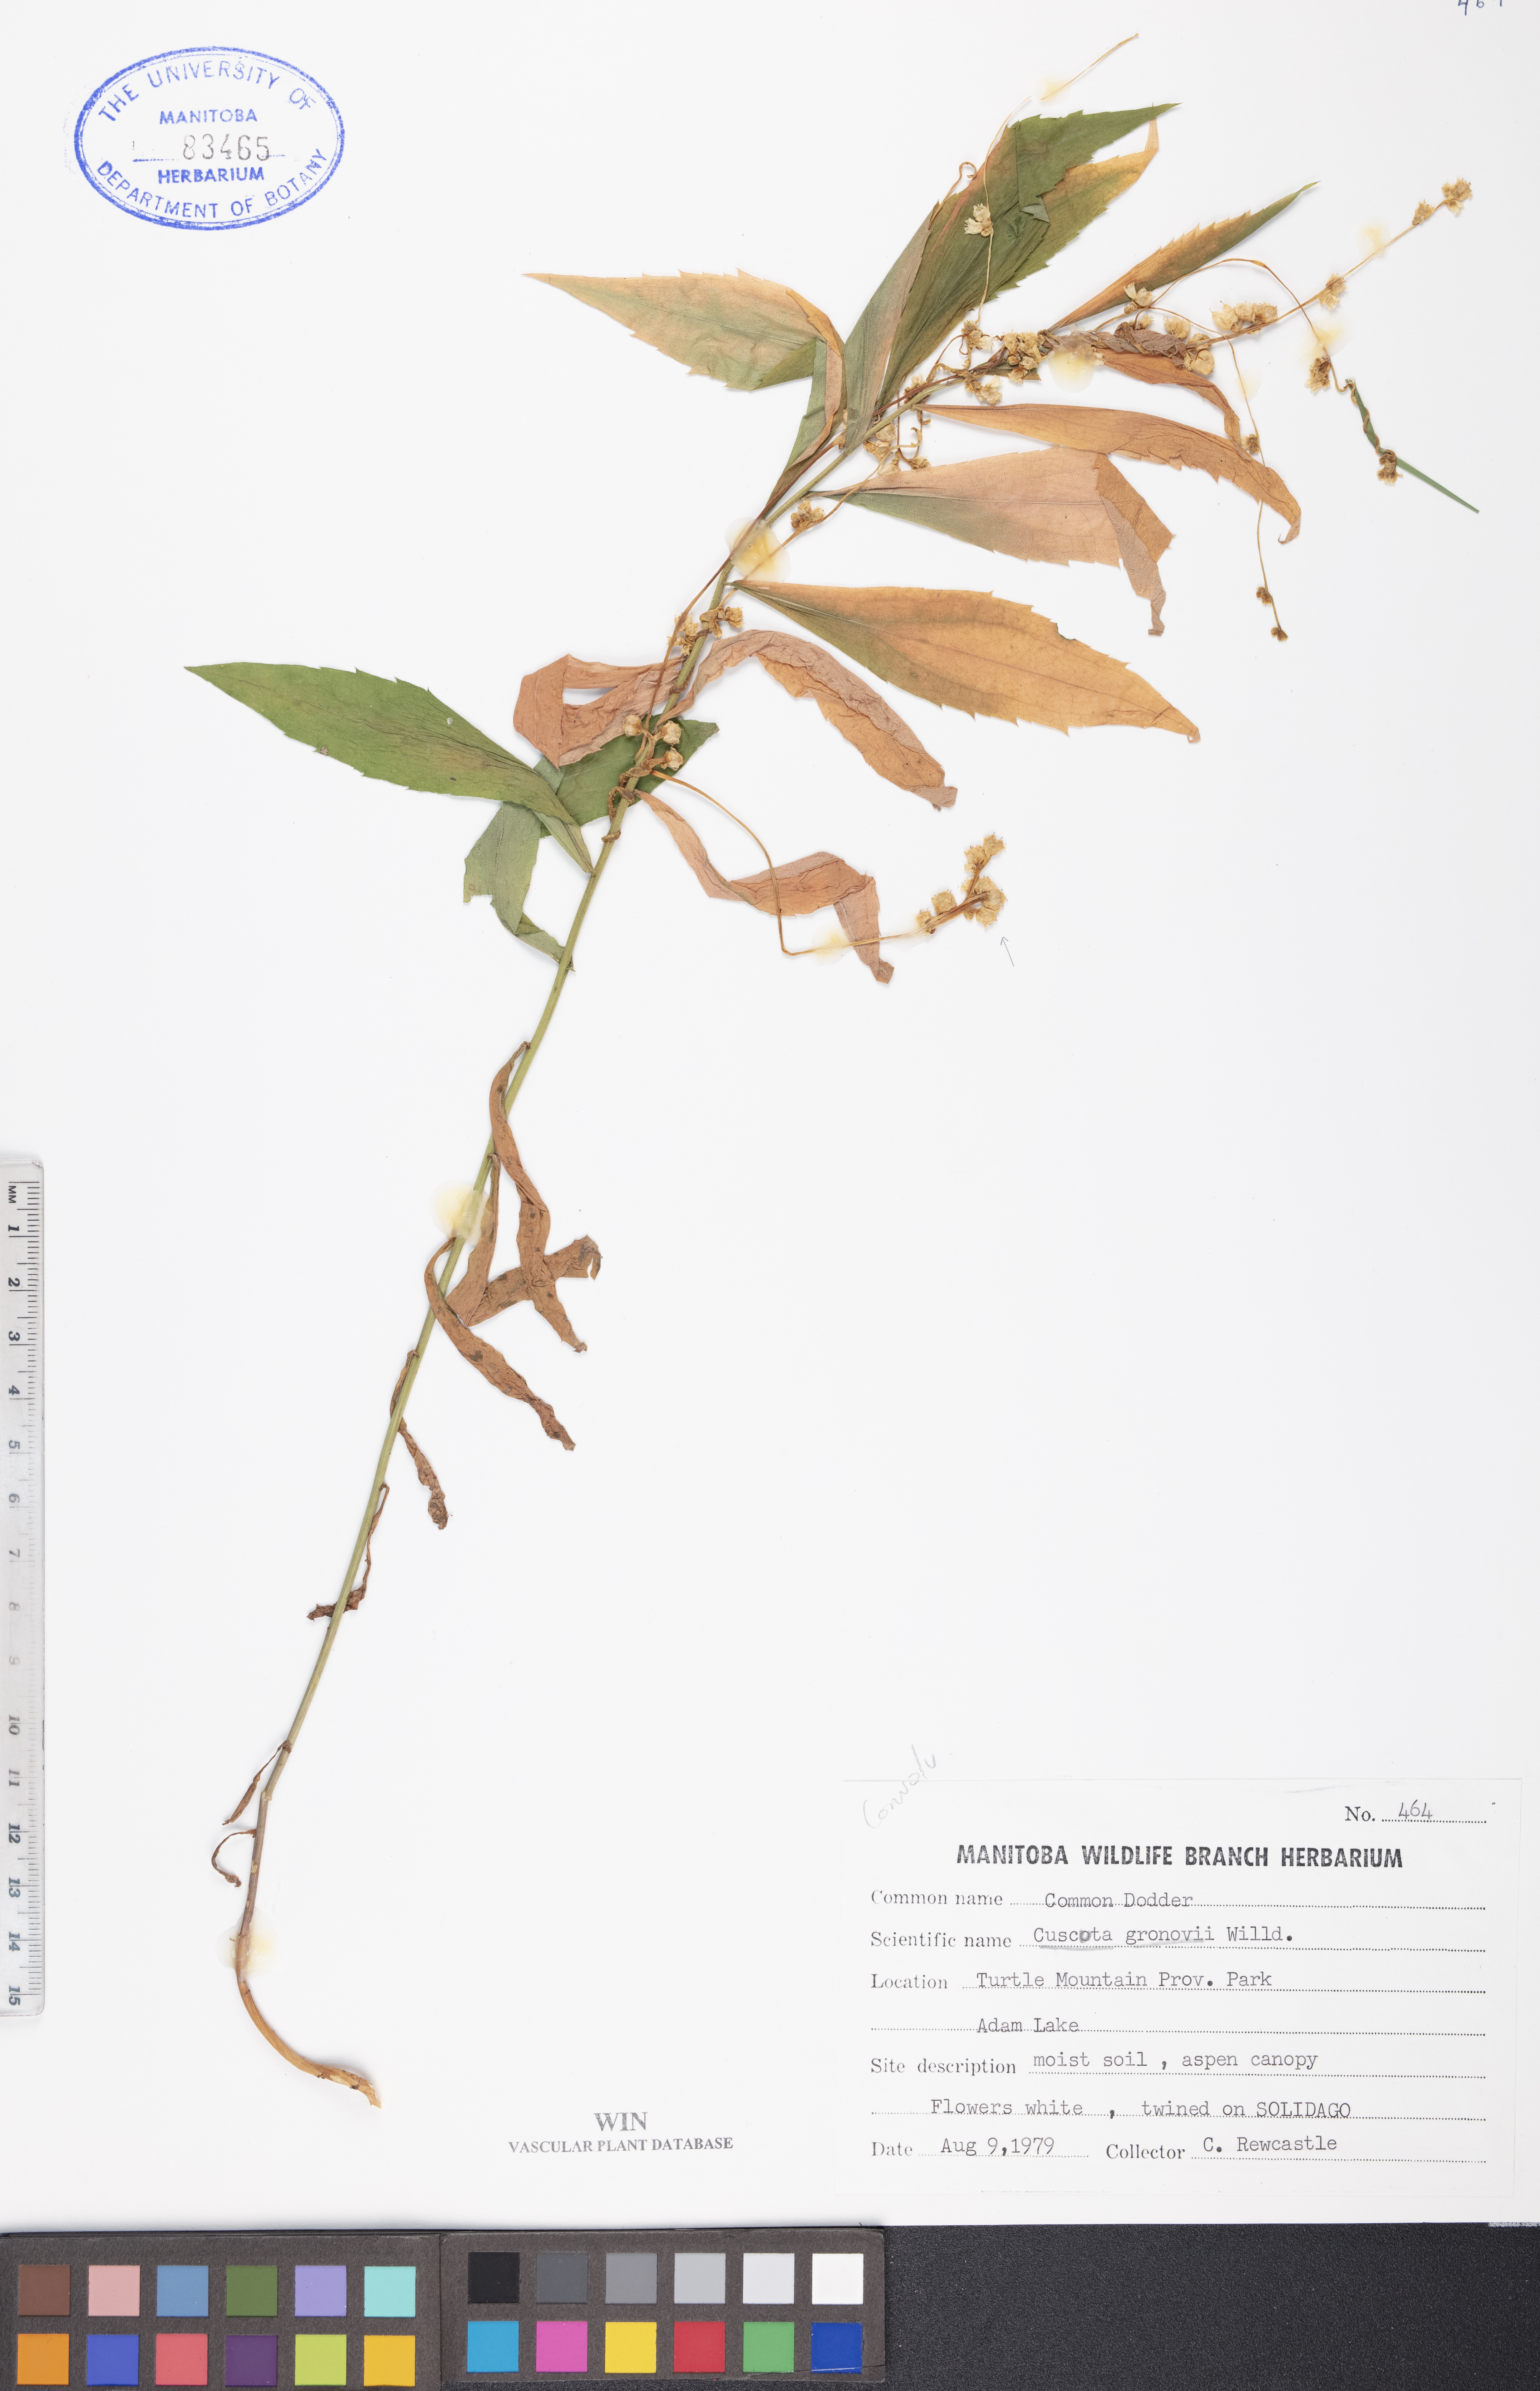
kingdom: Plantae
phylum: Tracheophyta
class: Magnoliopsida
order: Solanales
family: Convolvulaceae
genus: Cuscuta
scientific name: Cuscuta gronovii
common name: Common dodder
